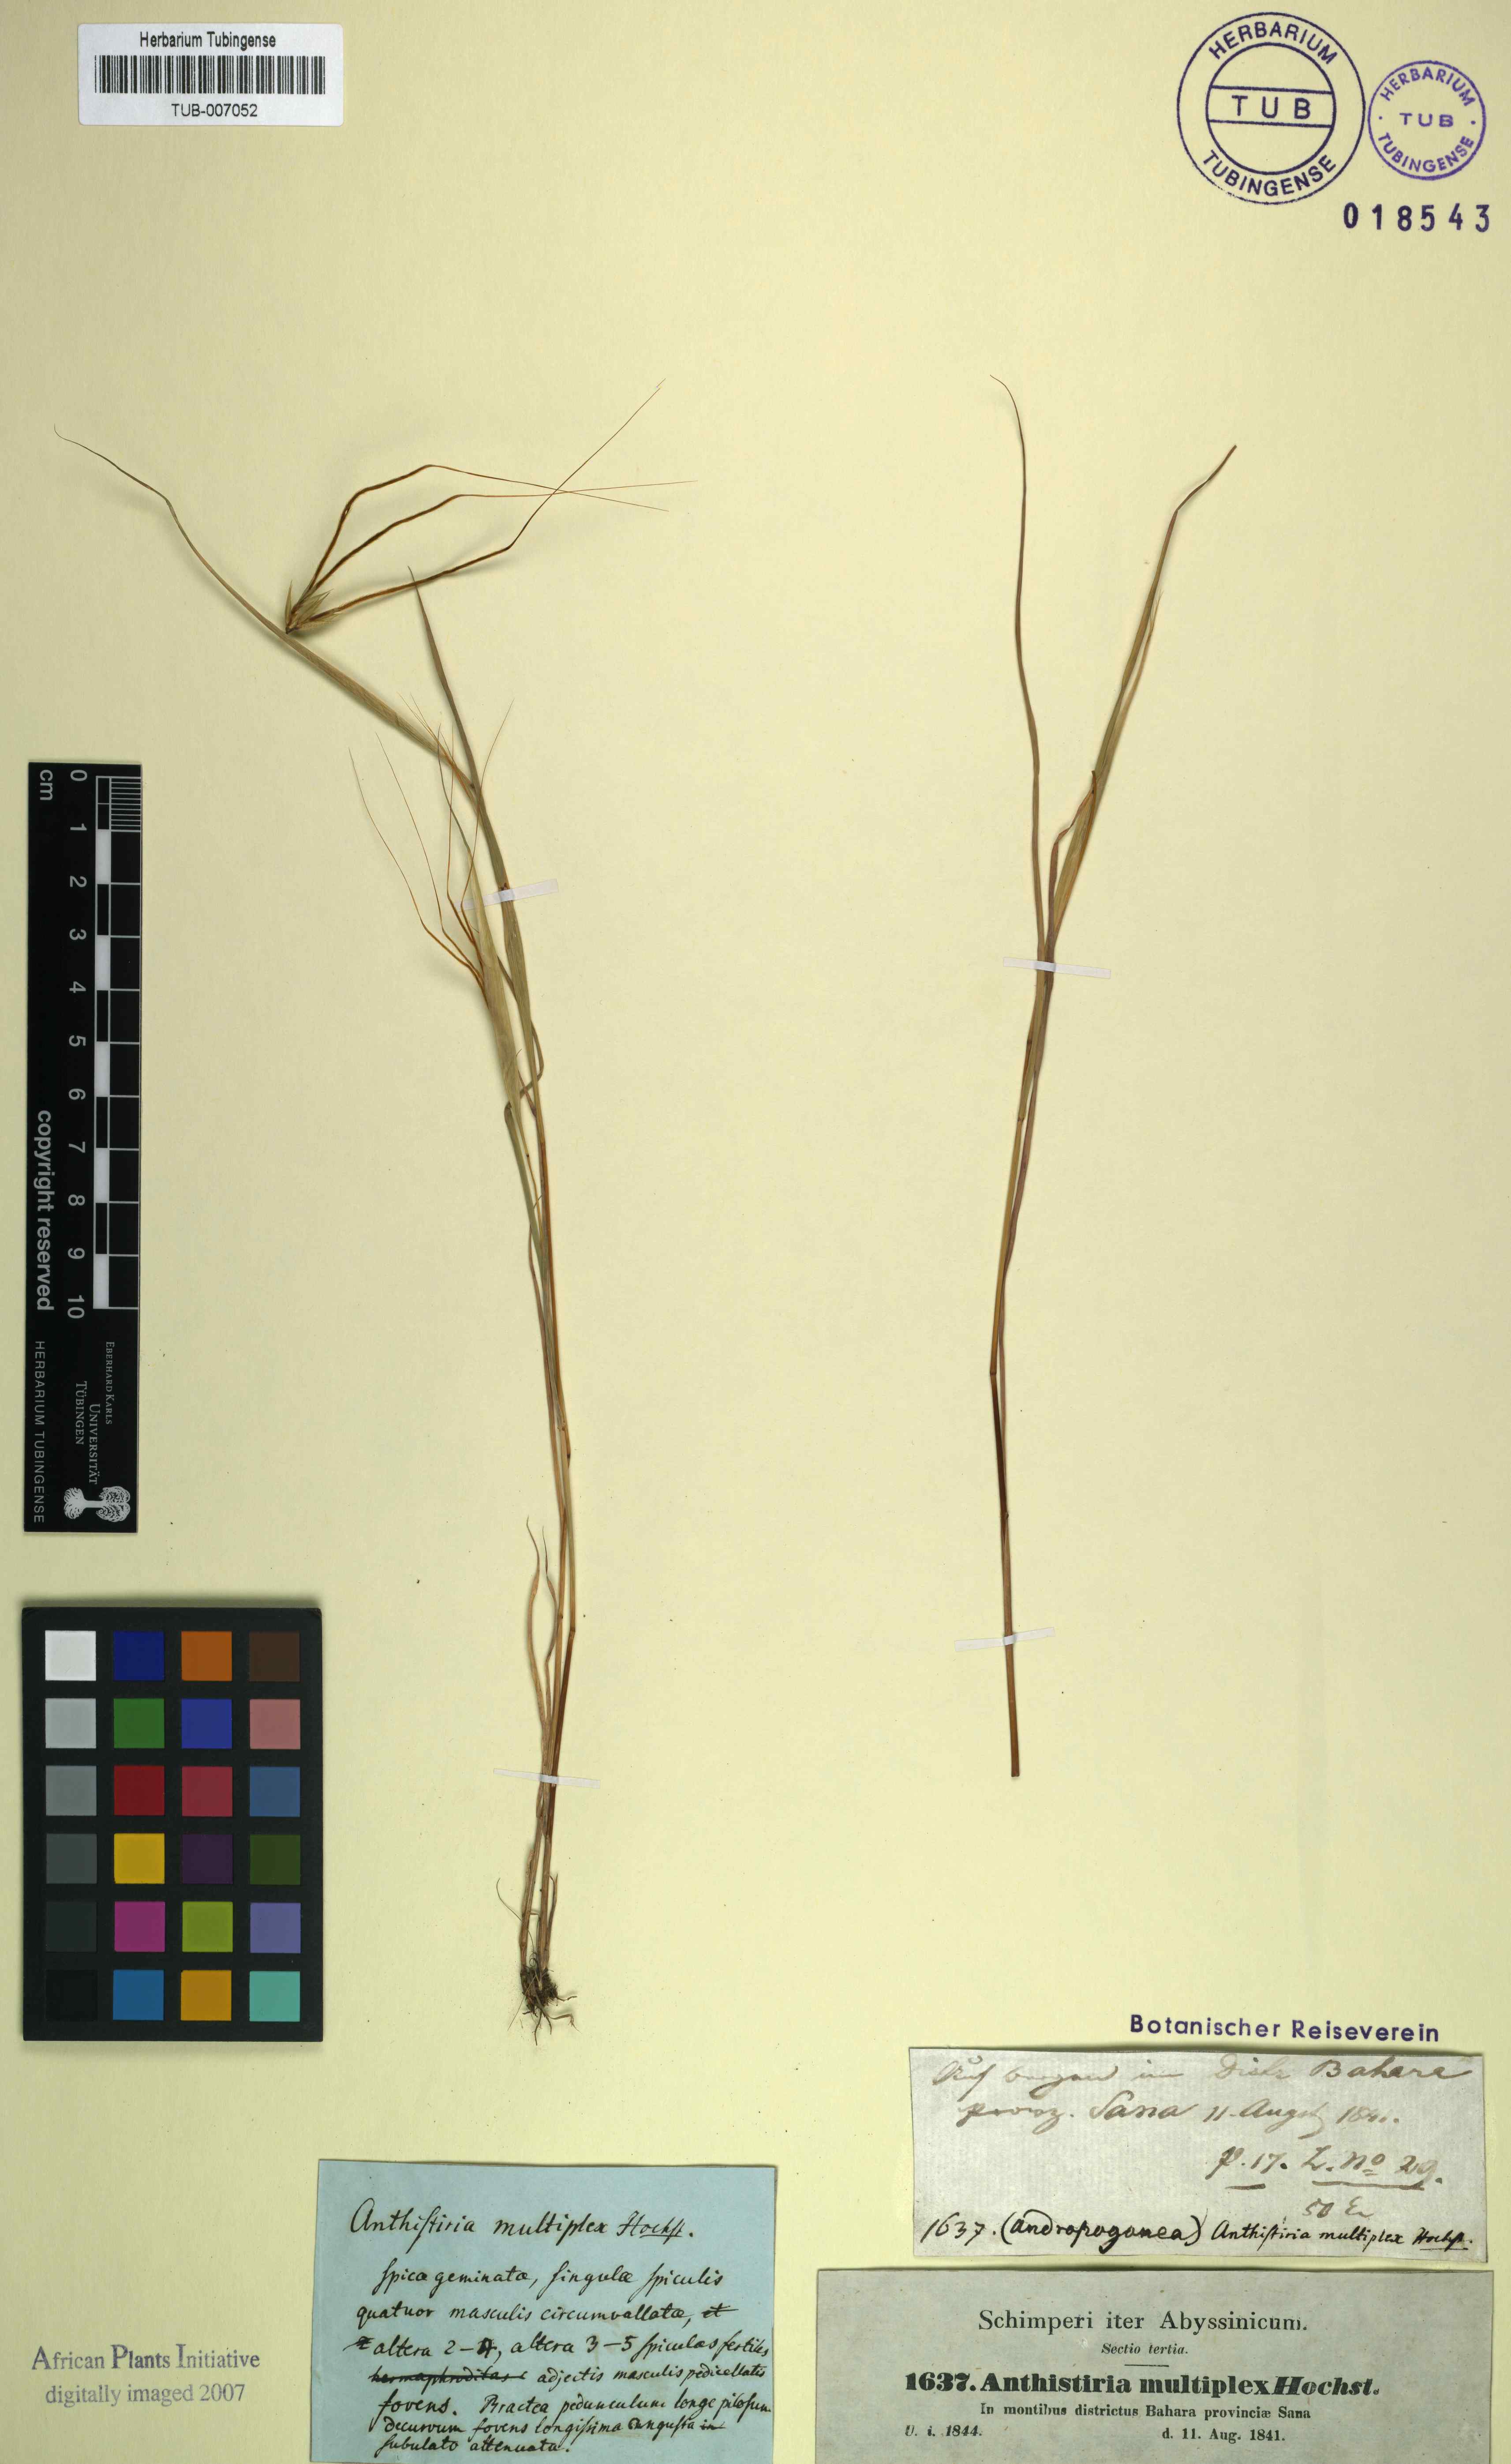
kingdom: Plantae
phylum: Tracheophyta
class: Liliopsida
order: Poales
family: Poaceae
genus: Hyparrhenia
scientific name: Hyparrhenia multiplex
